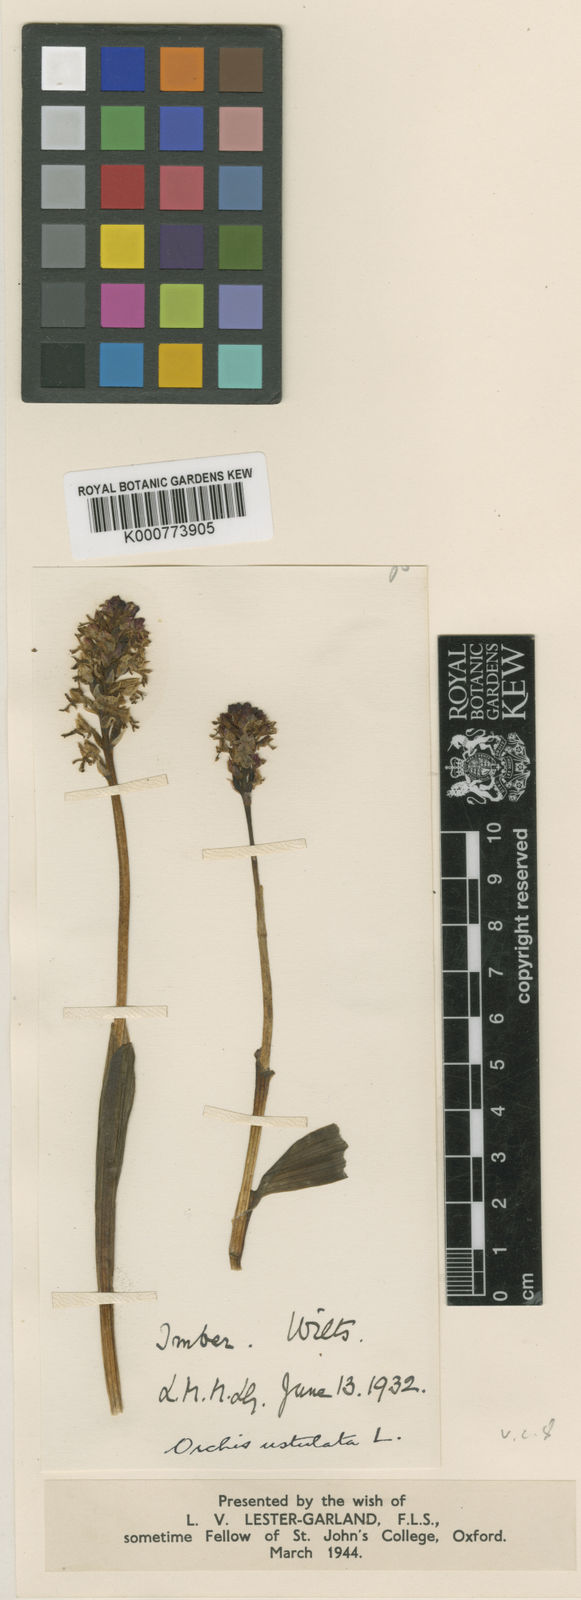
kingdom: Plantae
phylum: Tracheophyta
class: Liliopsida
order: Asparagales
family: Orchidaceae
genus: Neotinea
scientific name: Neotinea ustulata
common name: Burnt orchid
